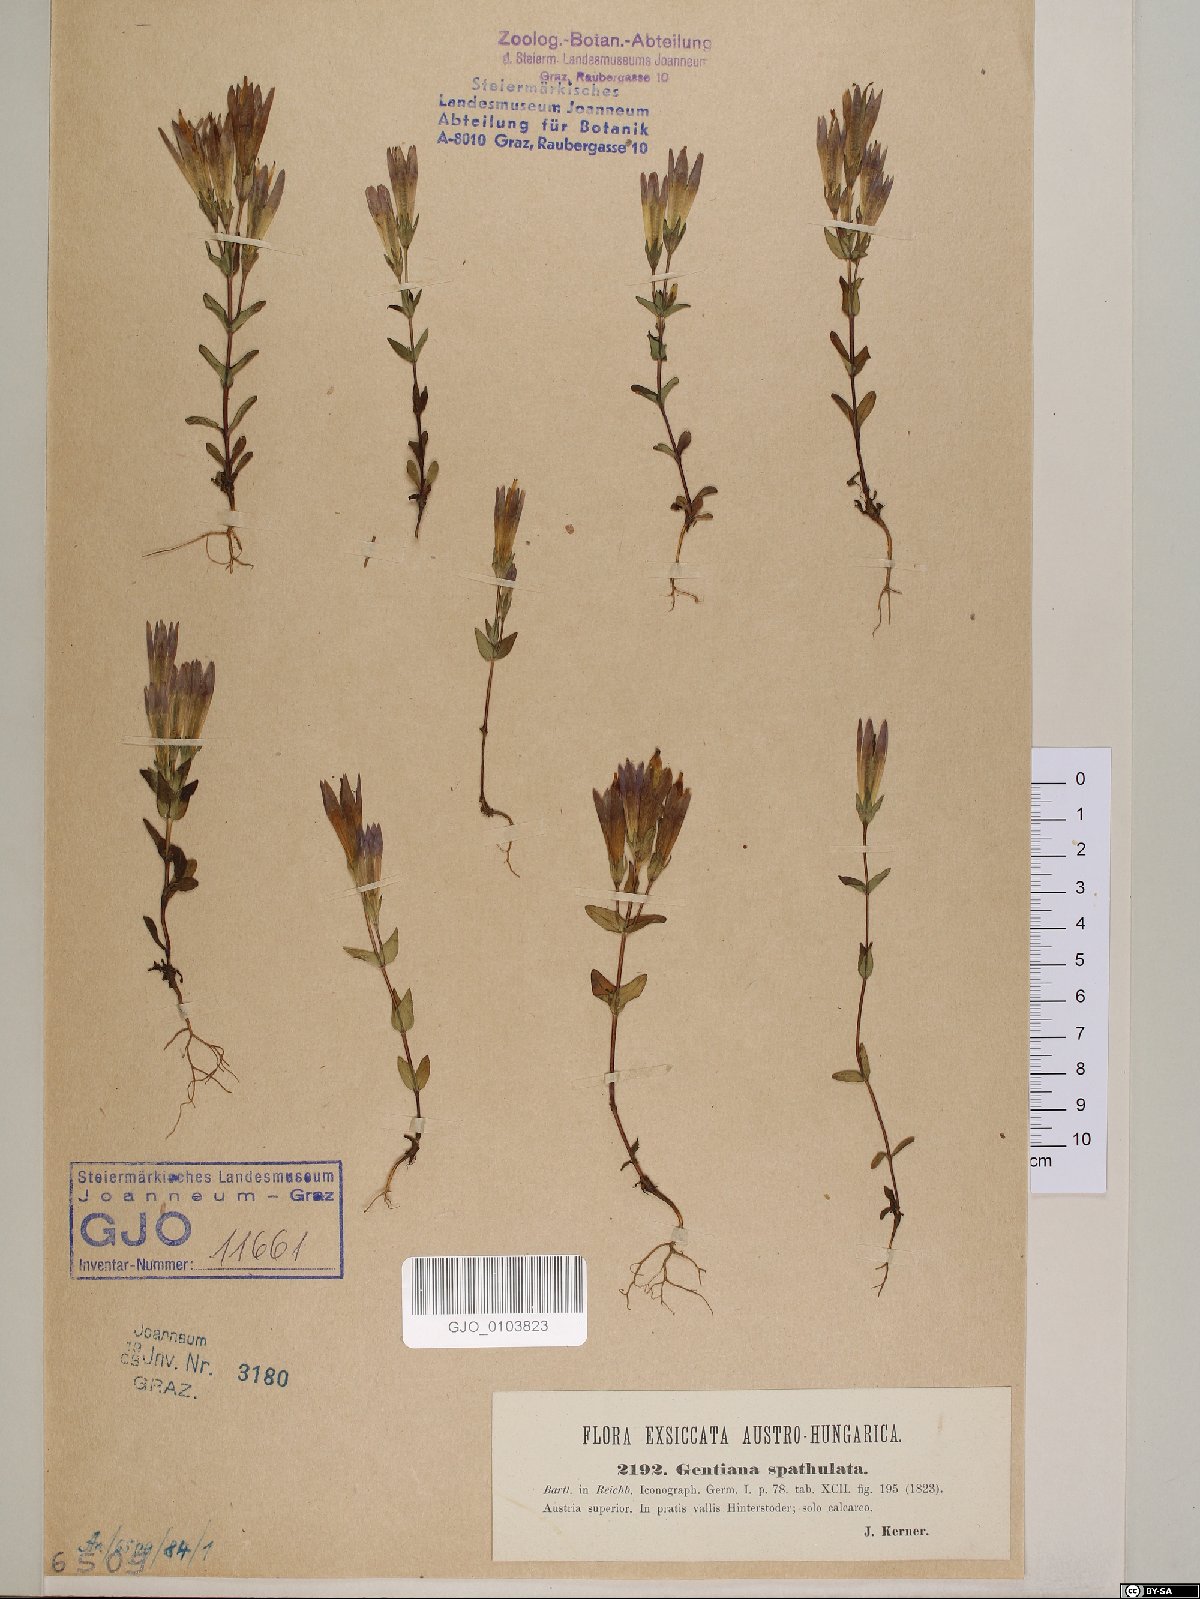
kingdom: Plantae
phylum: Tracheophyta
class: Magnoliopsida
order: Gentianales
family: Gentianaceae
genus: Gentianella
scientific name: Gentianella campestris
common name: Field gentian
